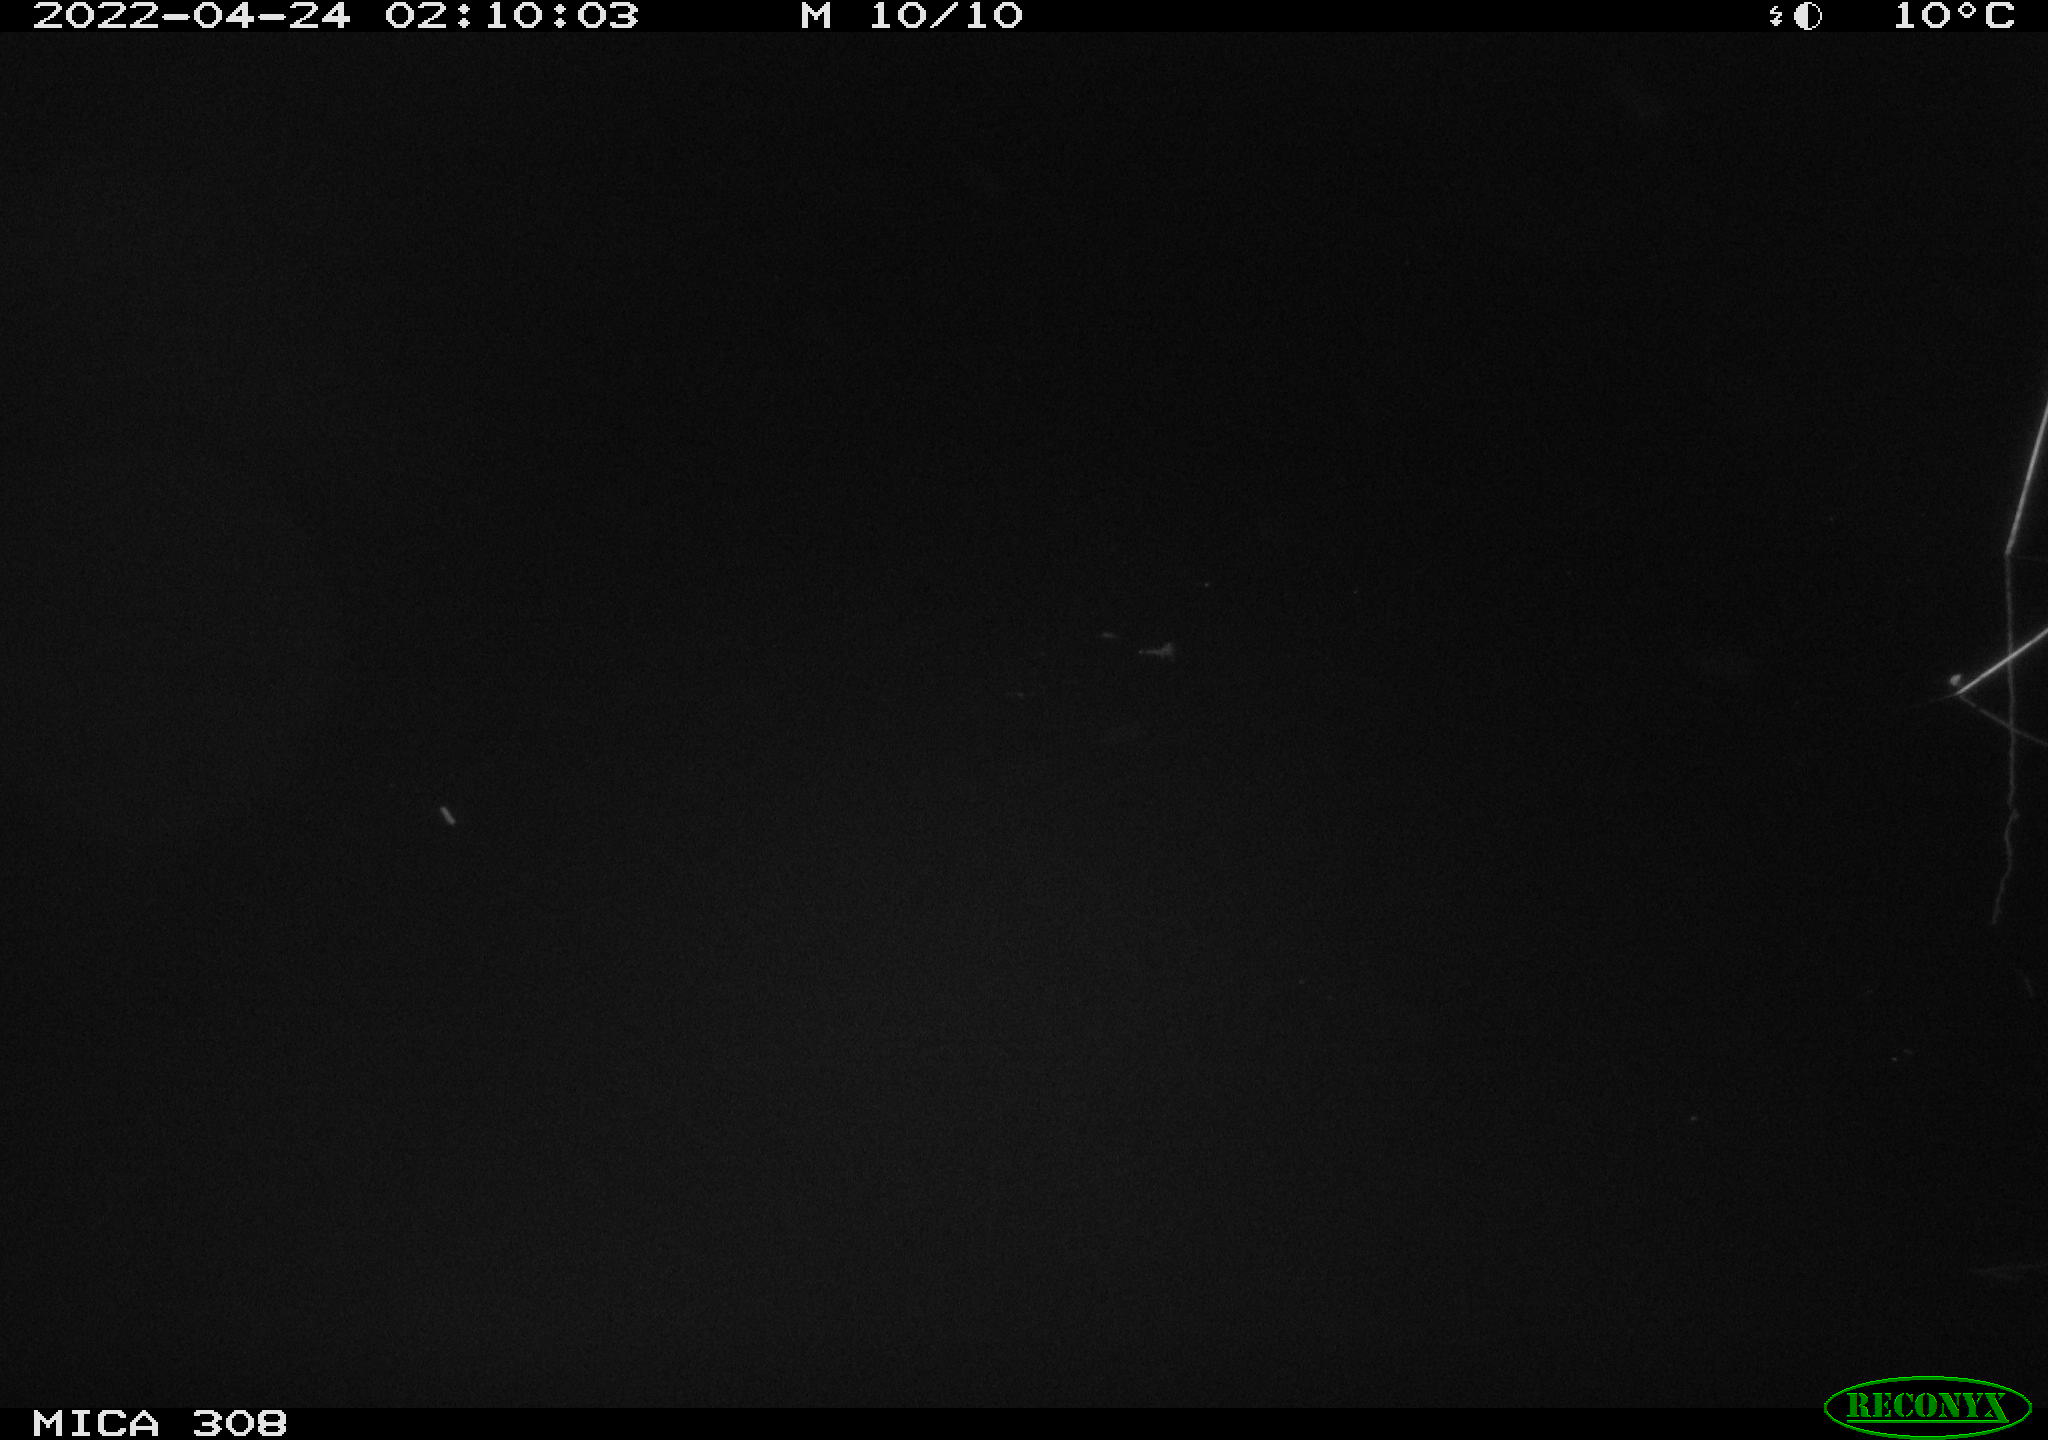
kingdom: Animalia
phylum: Chordata
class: Aves
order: Anseriformes
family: Anatidae
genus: Anas
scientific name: Anas platyrhynchos
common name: Mallard
